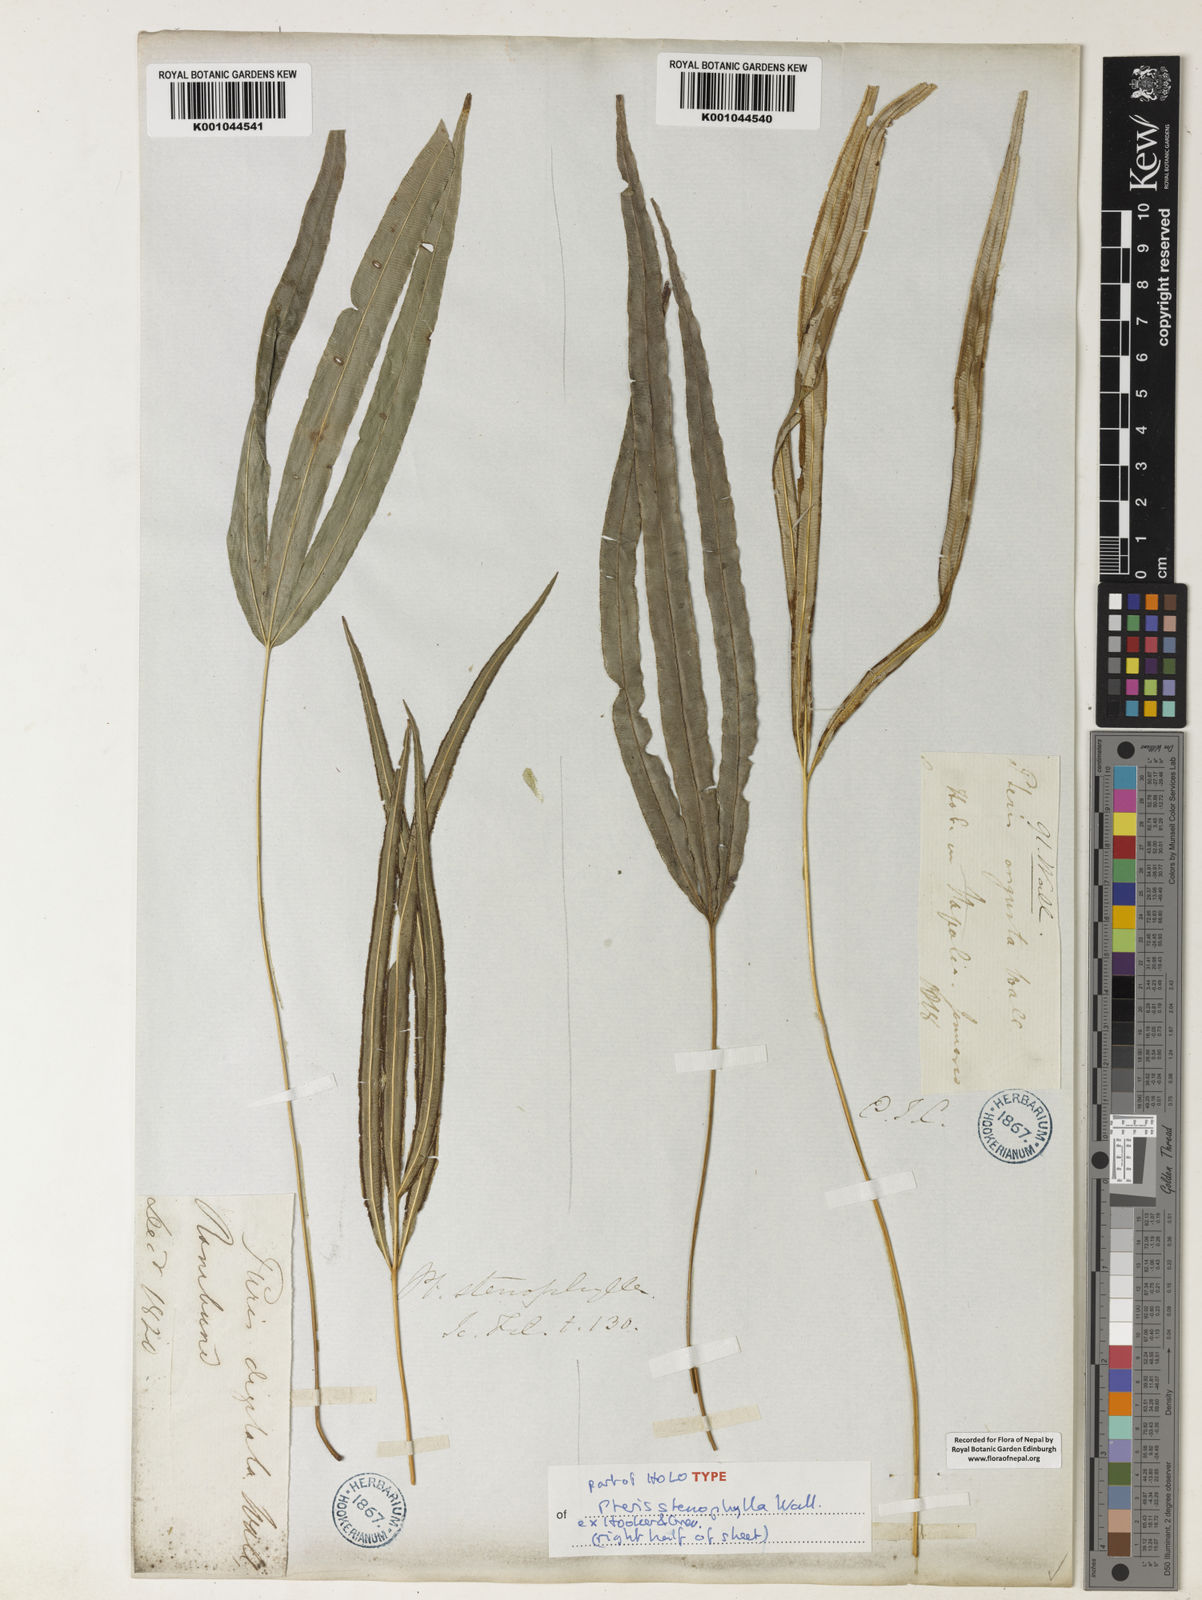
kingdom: Plantae
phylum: Tracheophyta
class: Polypodiopsida
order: Polypodiales
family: Pteridaceae
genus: Pteris
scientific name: Pteris stenophylla
